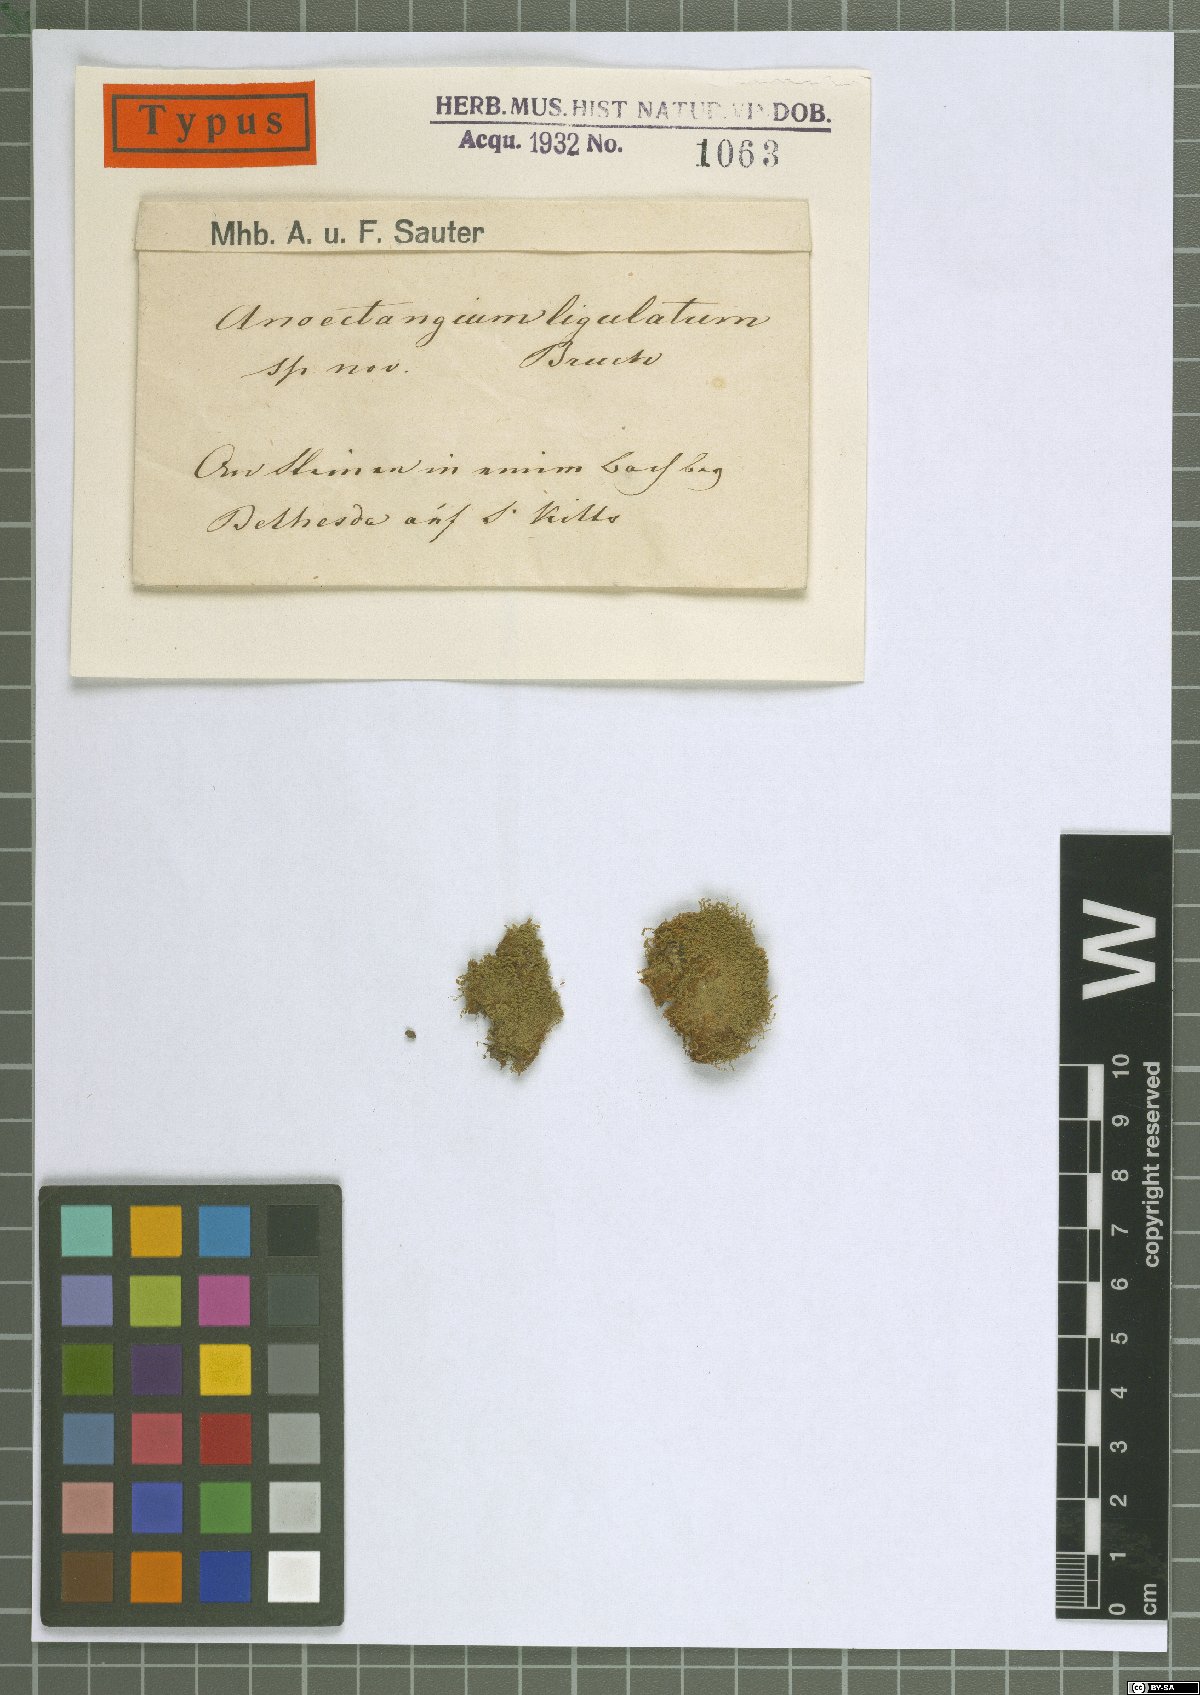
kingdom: Plantae
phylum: Bryophyta
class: Bryopsida
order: Pottiales
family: Pottiaceae
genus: Anoectangium
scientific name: Anoectangium
